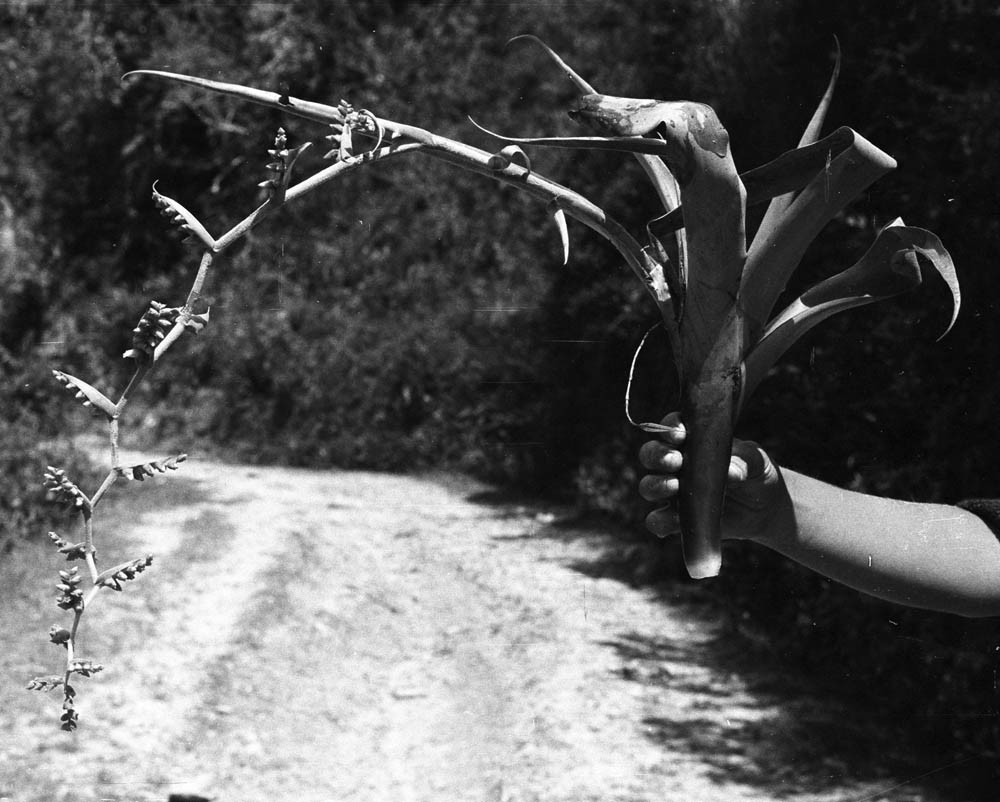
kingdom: Plantae
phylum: Tracheophyta
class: Liliopsida
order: Poales
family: Bromeliaceae
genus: Tillandsia
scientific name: Tillandsia complanata
